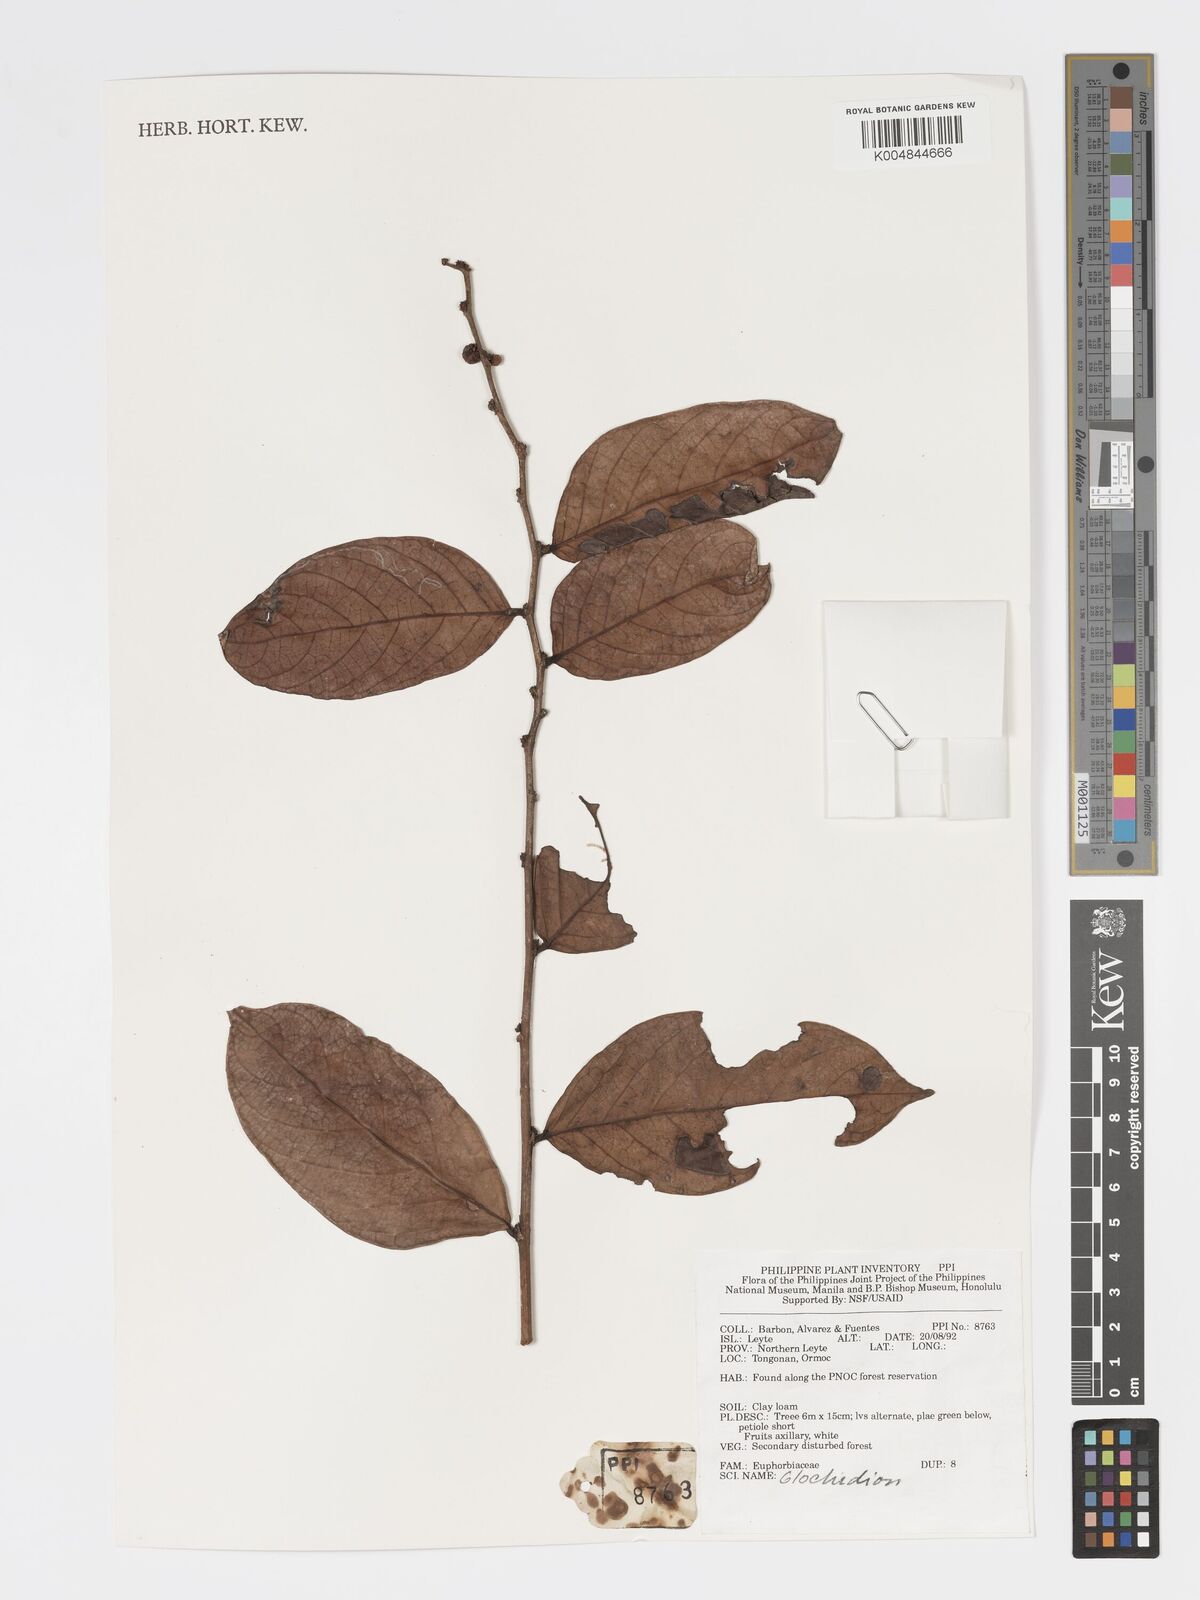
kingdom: Plantae
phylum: Tracheophyta
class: Magnoliopsida
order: Malpighiales
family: Phyllanthaceae
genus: Glochidion
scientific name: Glochidion
